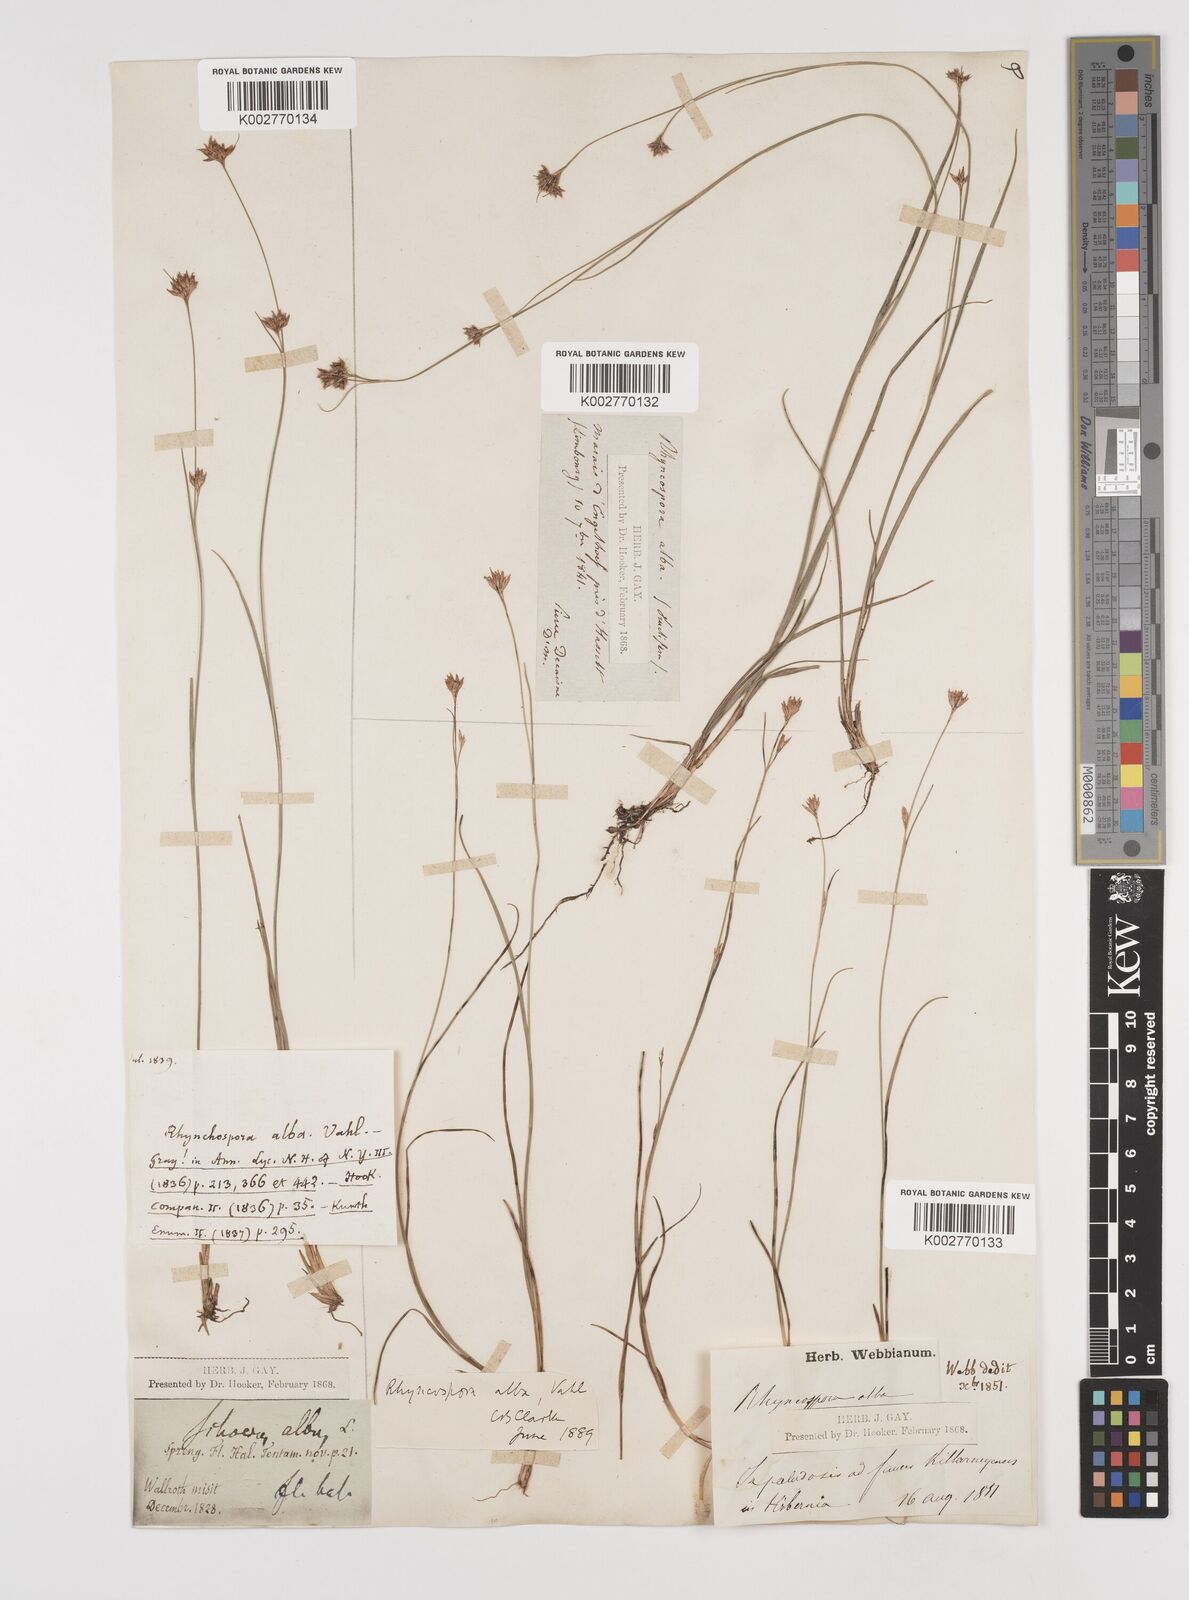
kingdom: Plantae
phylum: Tracheophyta
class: Liliopsida
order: Poales
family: Cyperaceae
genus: Rhynchospora
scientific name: Rhynchospora alba
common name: White beak-sedge
